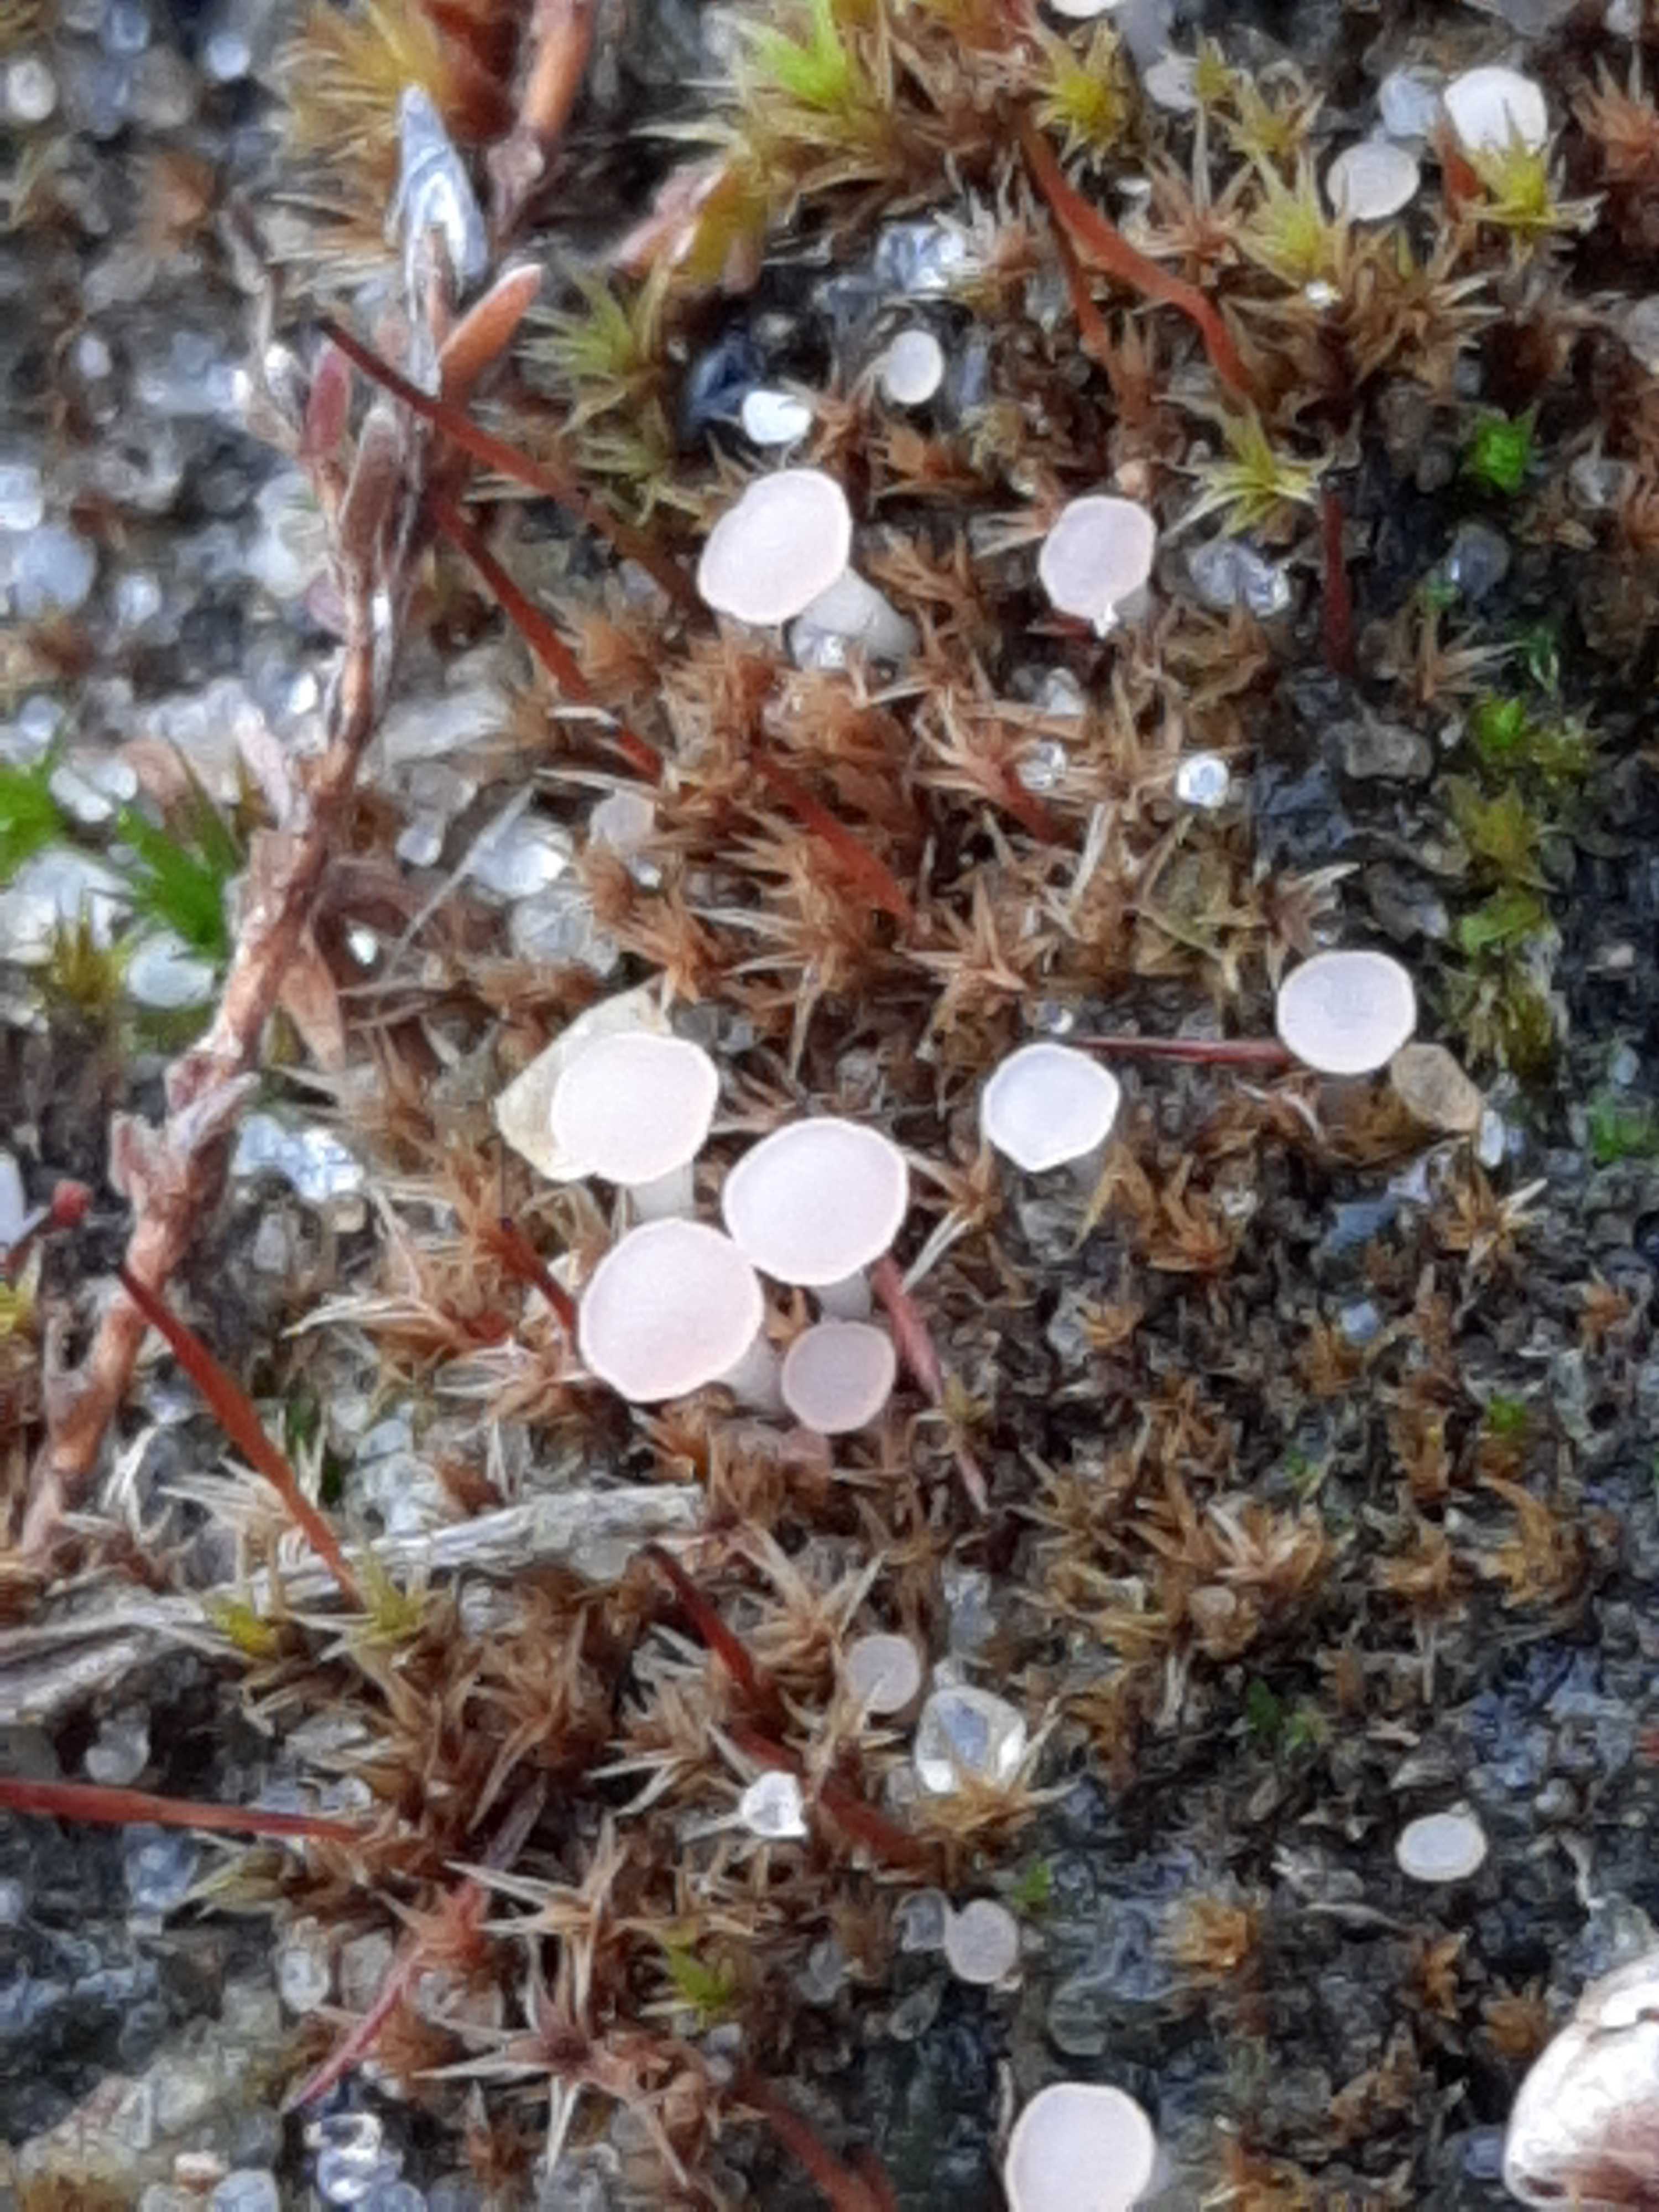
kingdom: Fungi
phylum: Ascomycota
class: Leotiomycetes
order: Helotiales
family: Hyaloscyphaceae
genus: Roseodiscus
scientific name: Roseodiscus formosus
